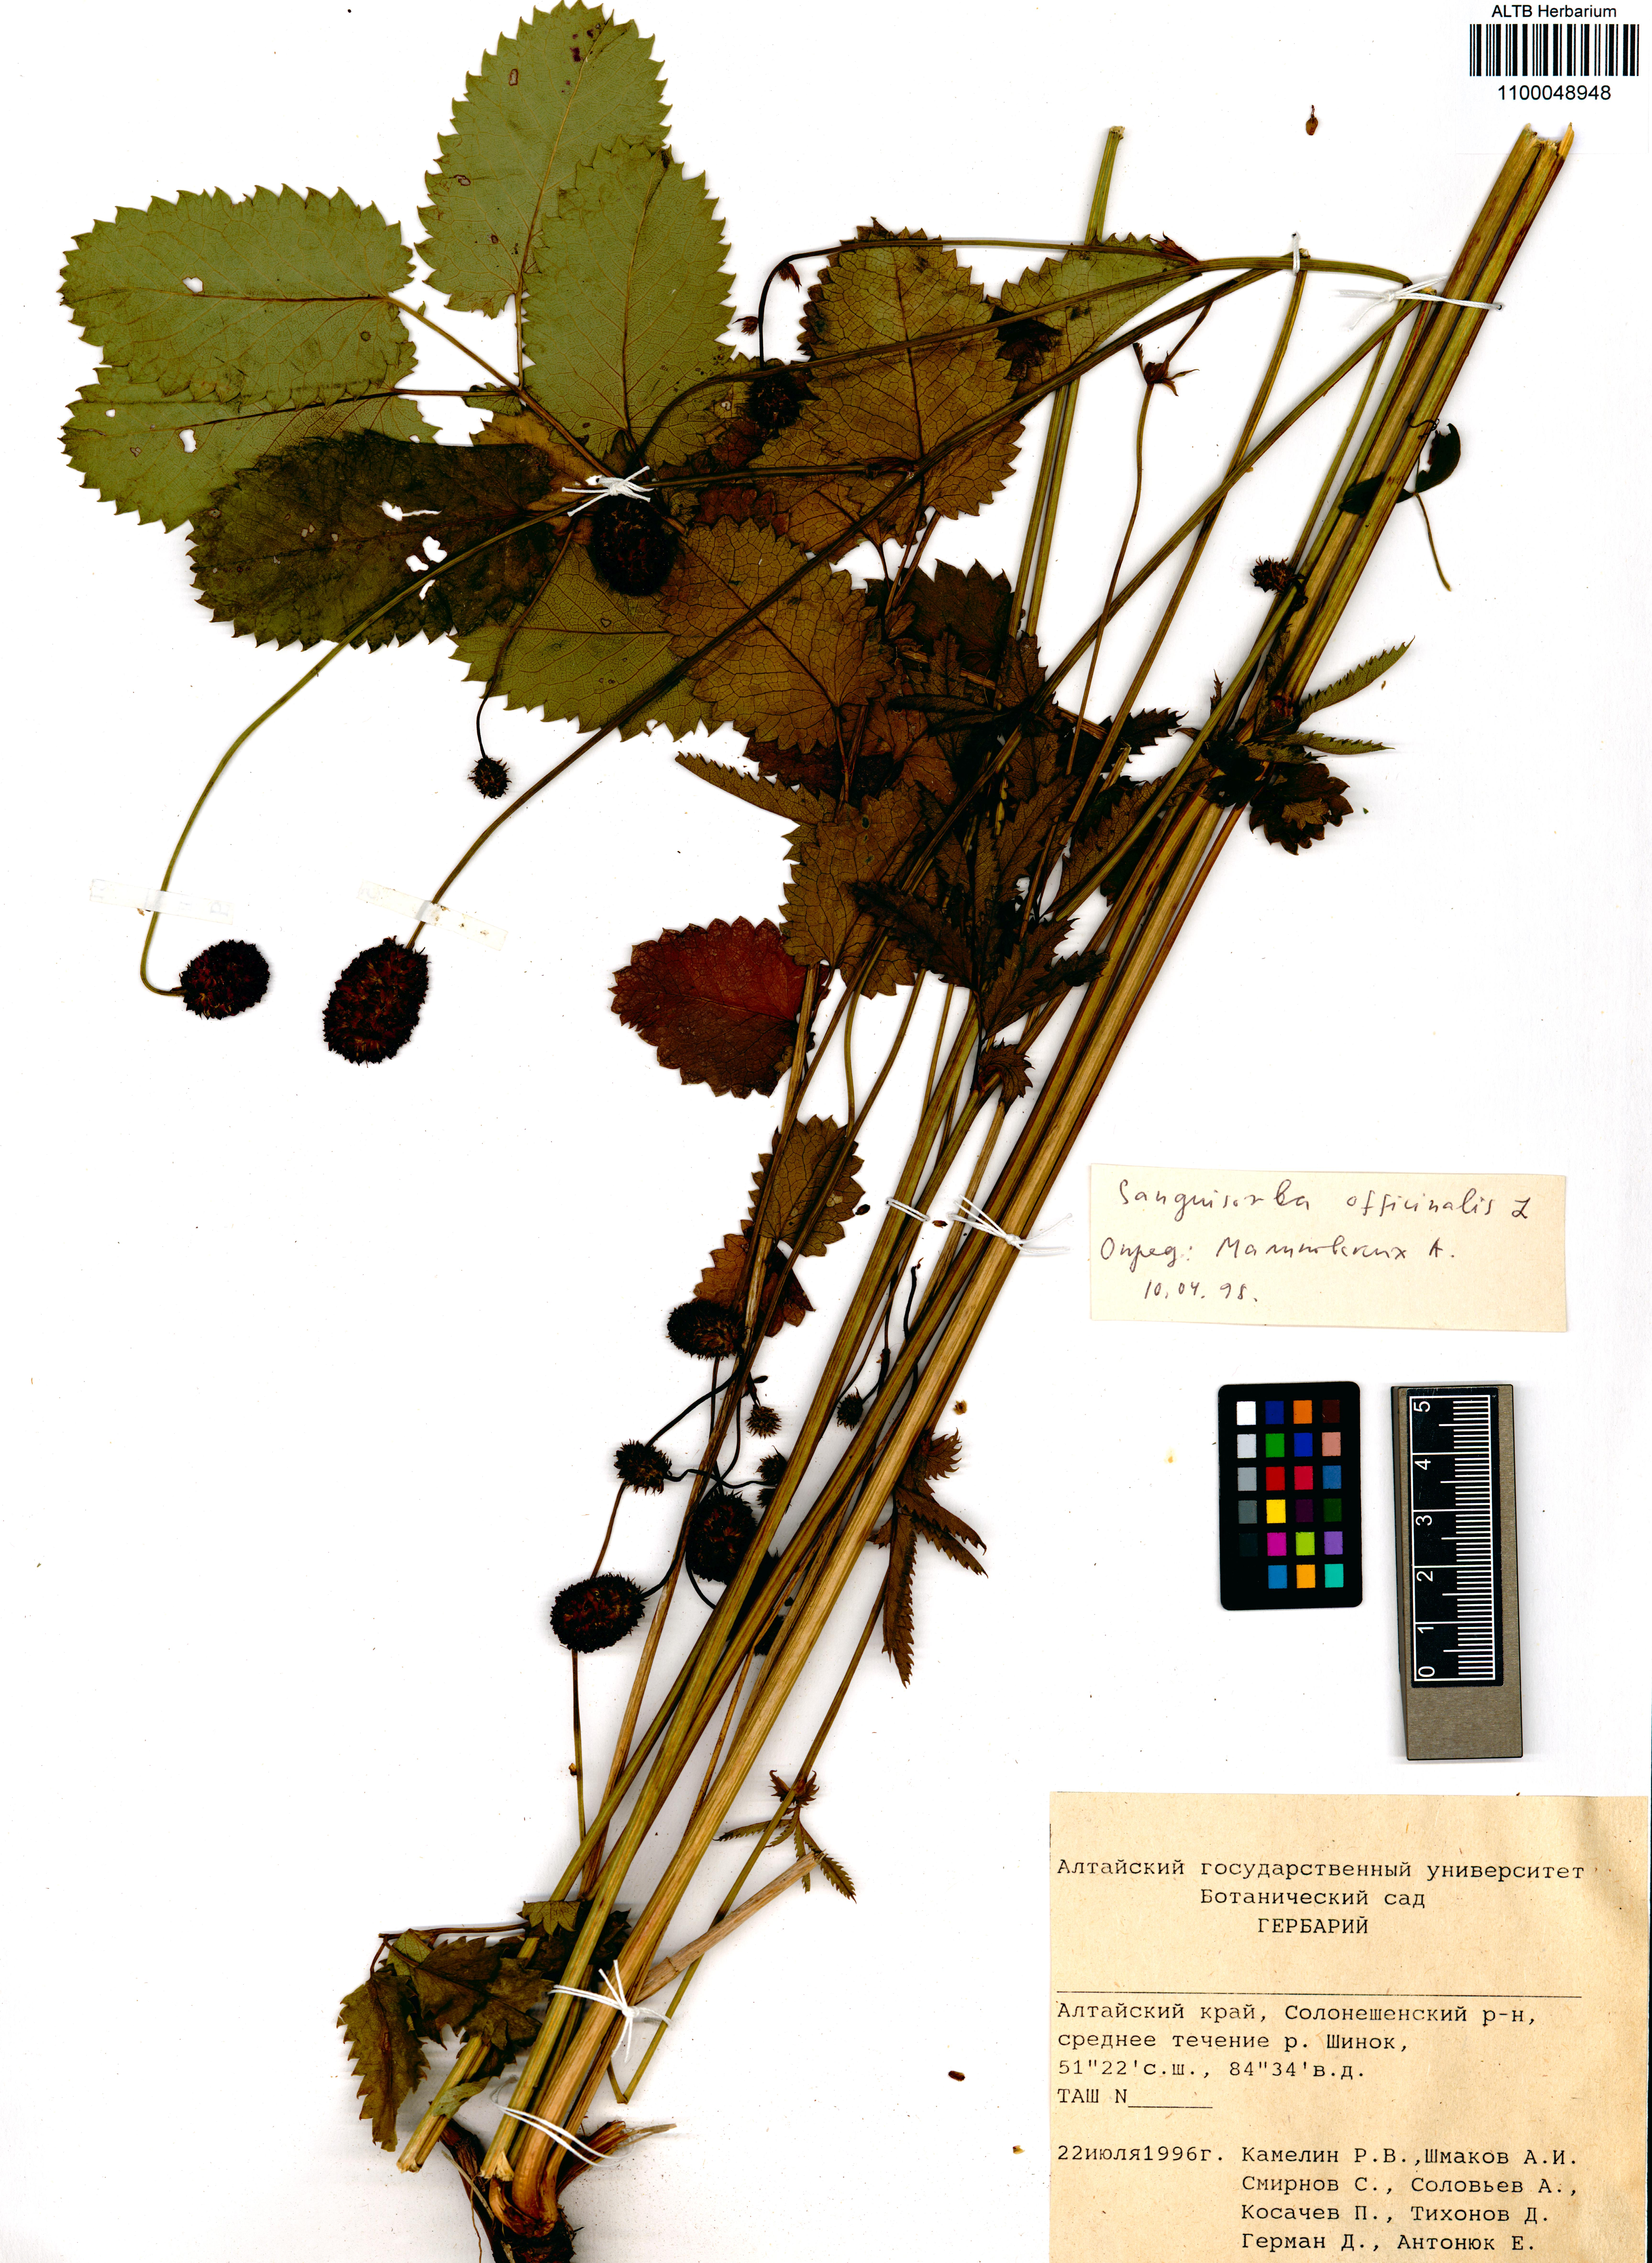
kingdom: Plantae
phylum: Tracheophyta
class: Magnoliopsida
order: Rosales
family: Rosaceae
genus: Sanguisorba
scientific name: Sanguisorba officinalis
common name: Great burnet
